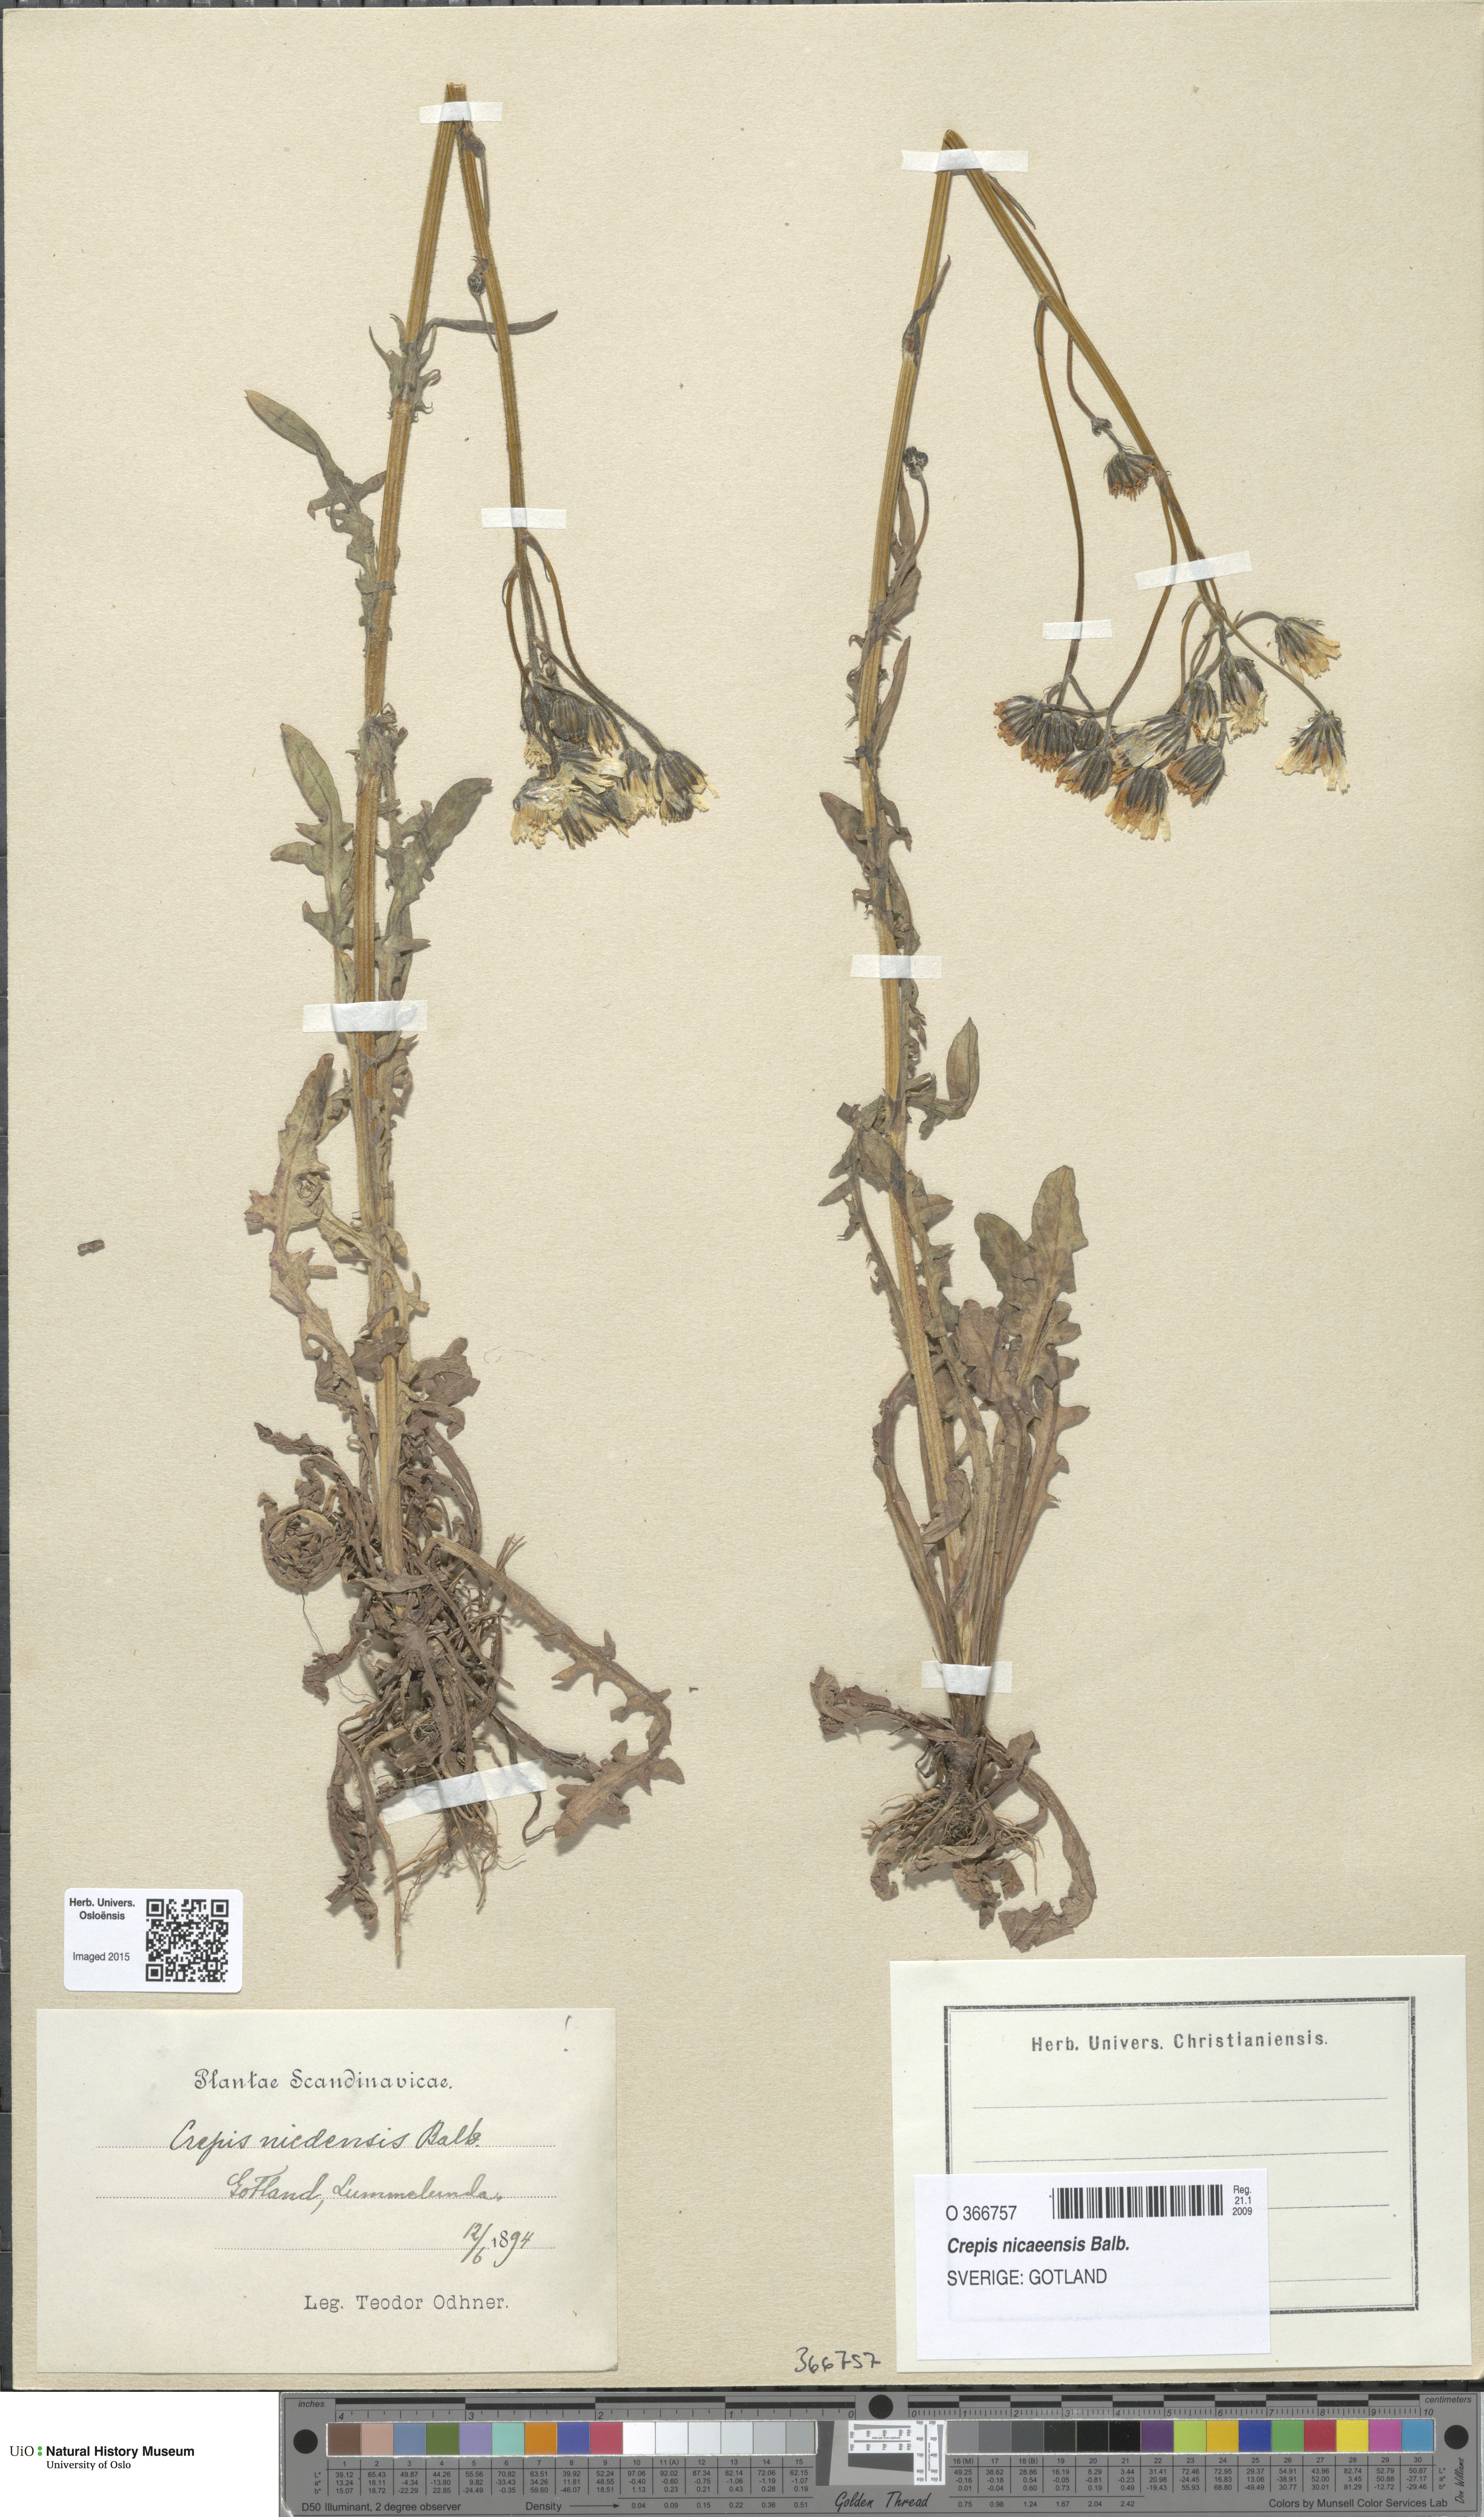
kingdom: Plantae
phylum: Tracheophyta
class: Magnoliopsida
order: Asterales
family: Asteraceae
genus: Crepis
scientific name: Crepis nicaeensis
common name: Turkish hawksbeard
